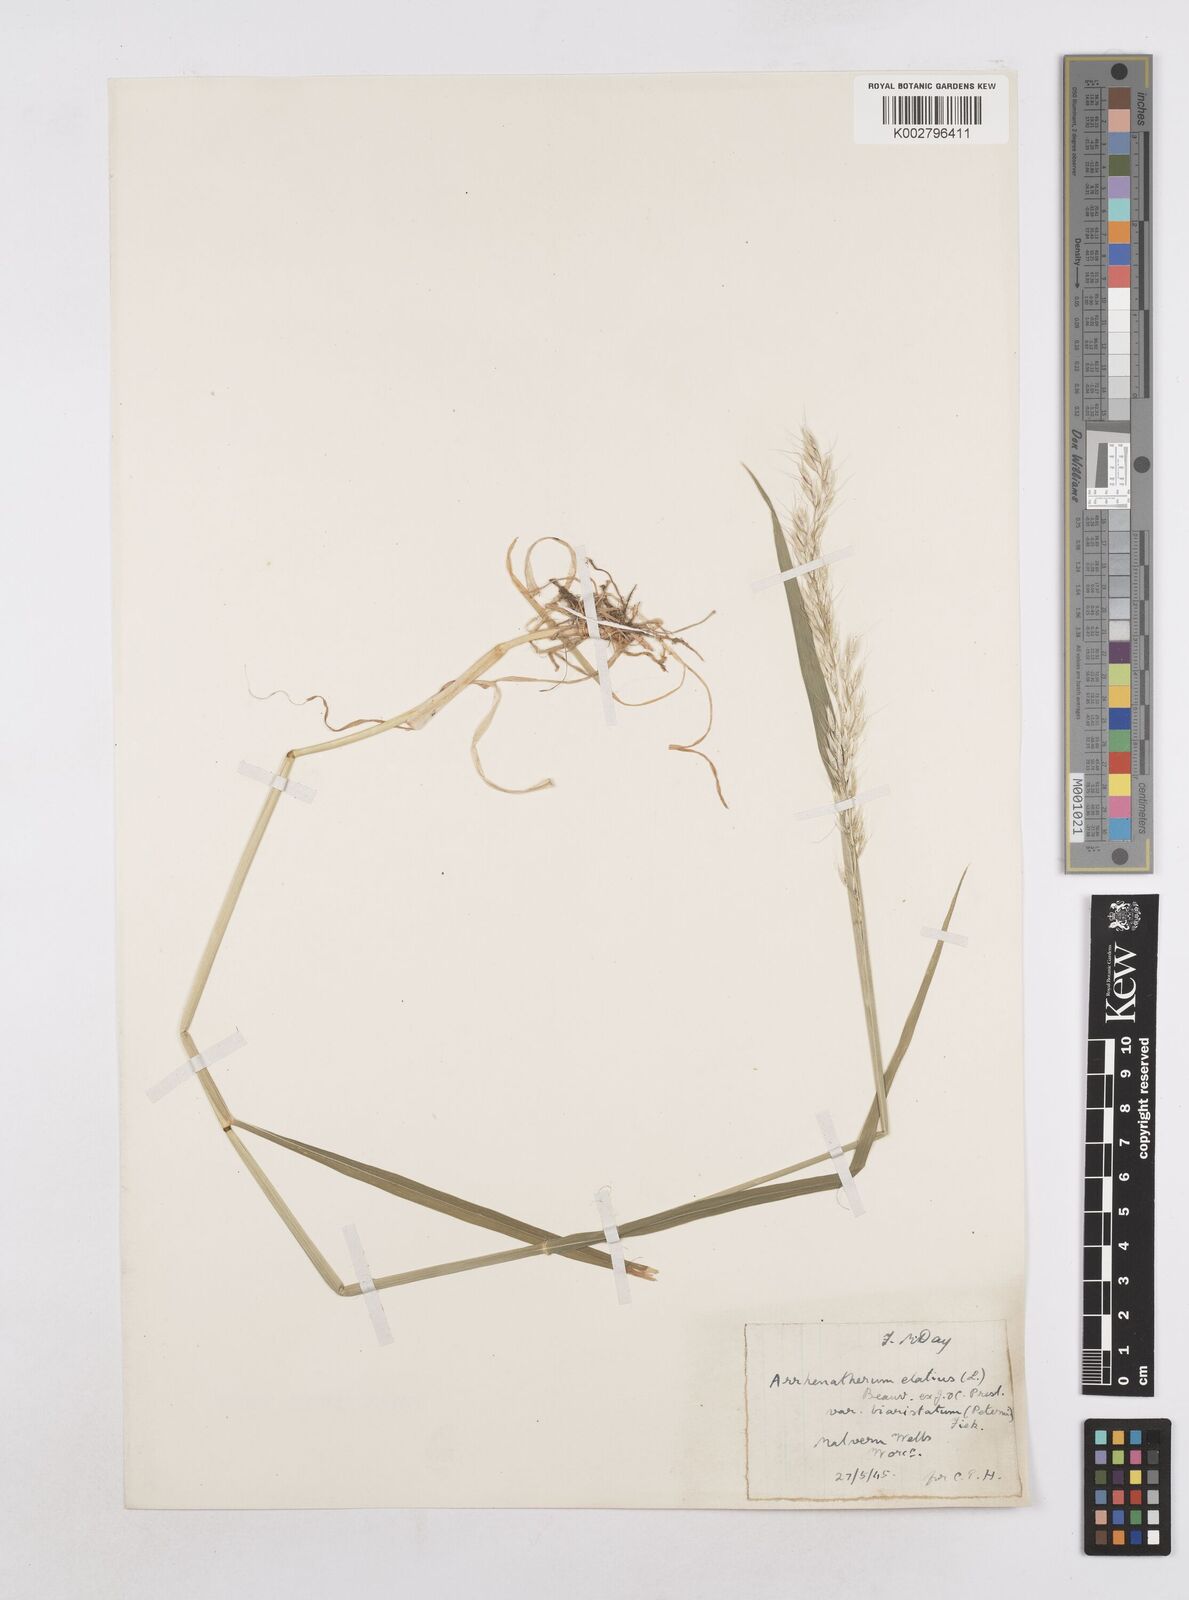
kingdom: Plantae
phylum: Tracheophyta
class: Liliopsida
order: Poales
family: Poaceae
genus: Arrhenatherum
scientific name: Arrhenatherum elatius
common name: Tall oatgrass
